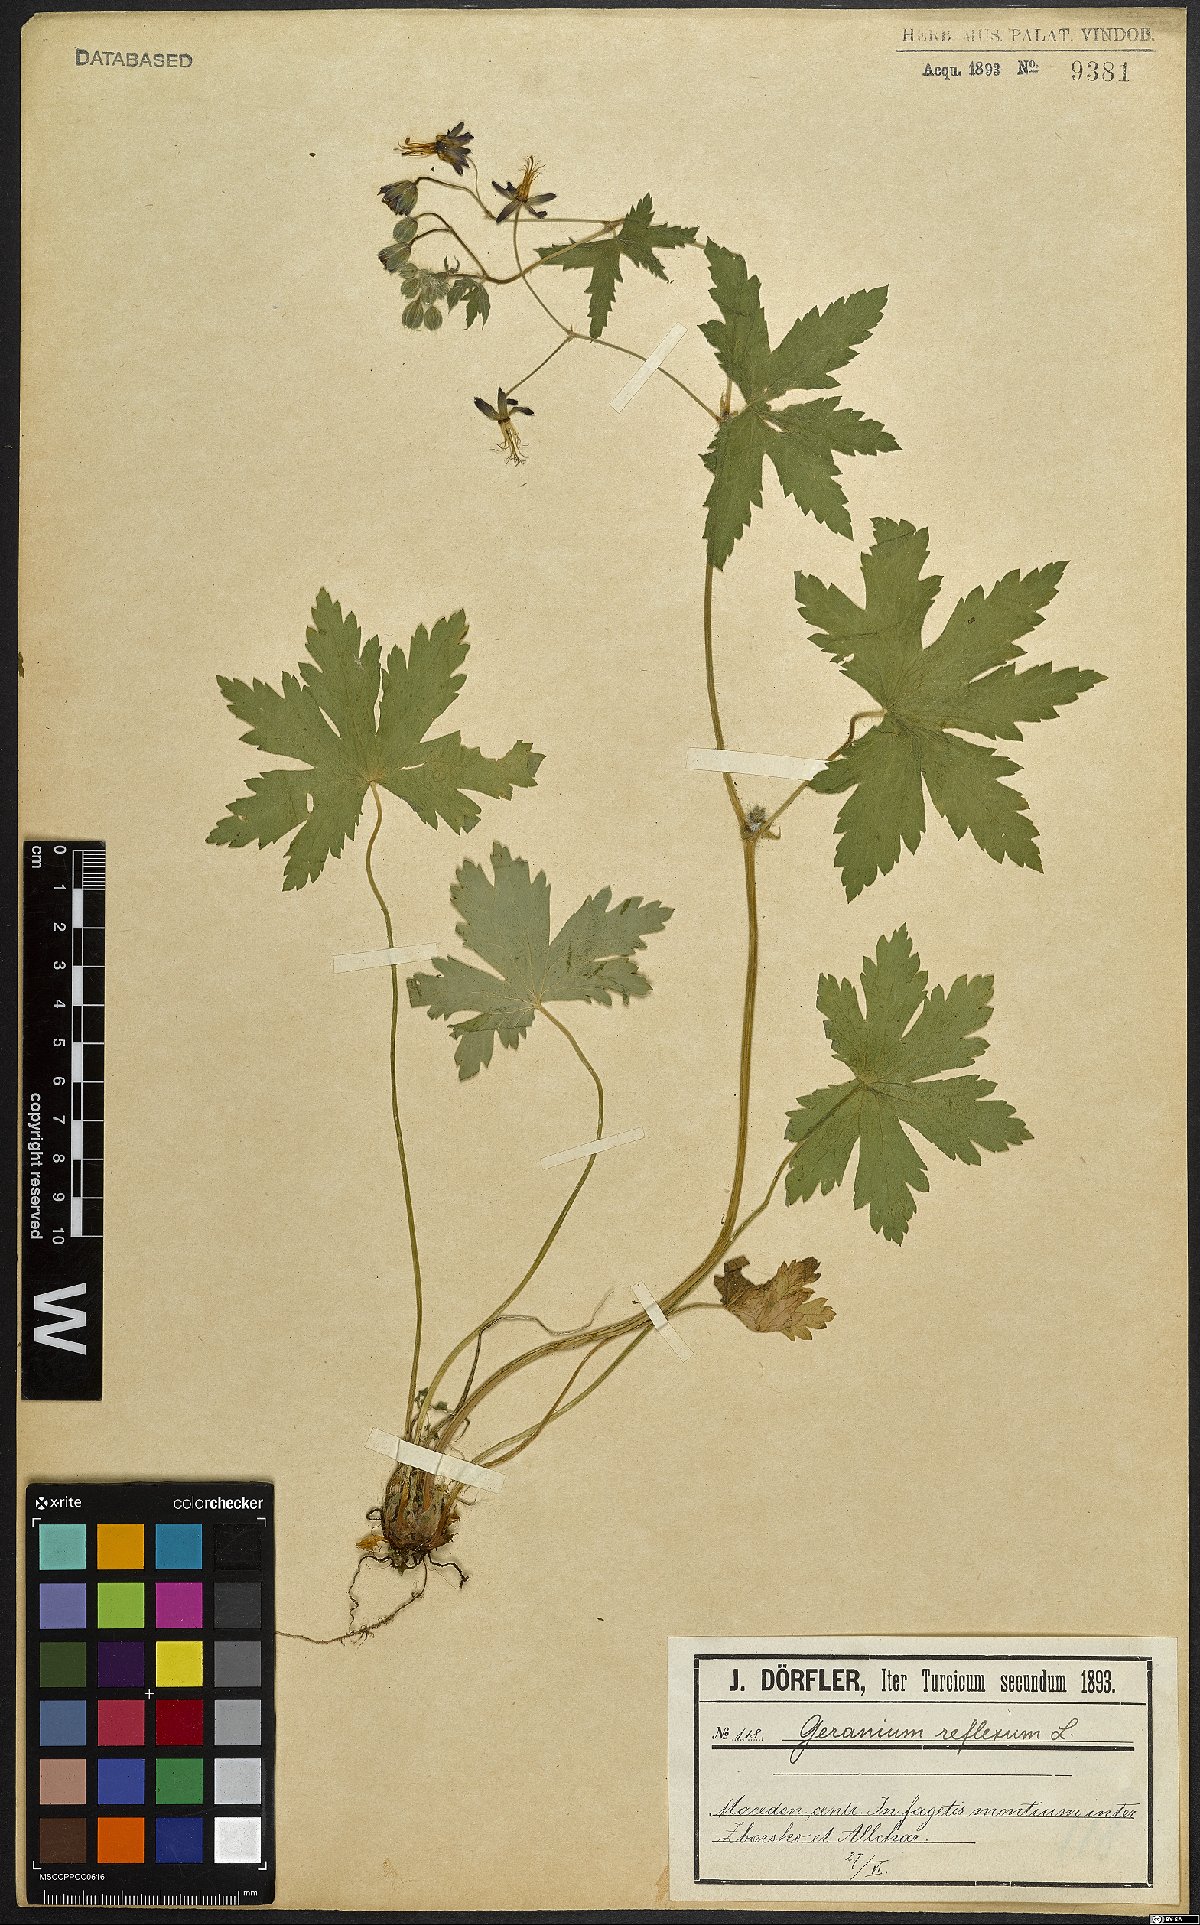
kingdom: Plantae
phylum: Tracheophyta
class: Magnoliopsida
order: Geraniales
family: Geraniaceae
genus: Geranium
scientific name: Geranium reflexum
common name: Reflexed crane's-bill
